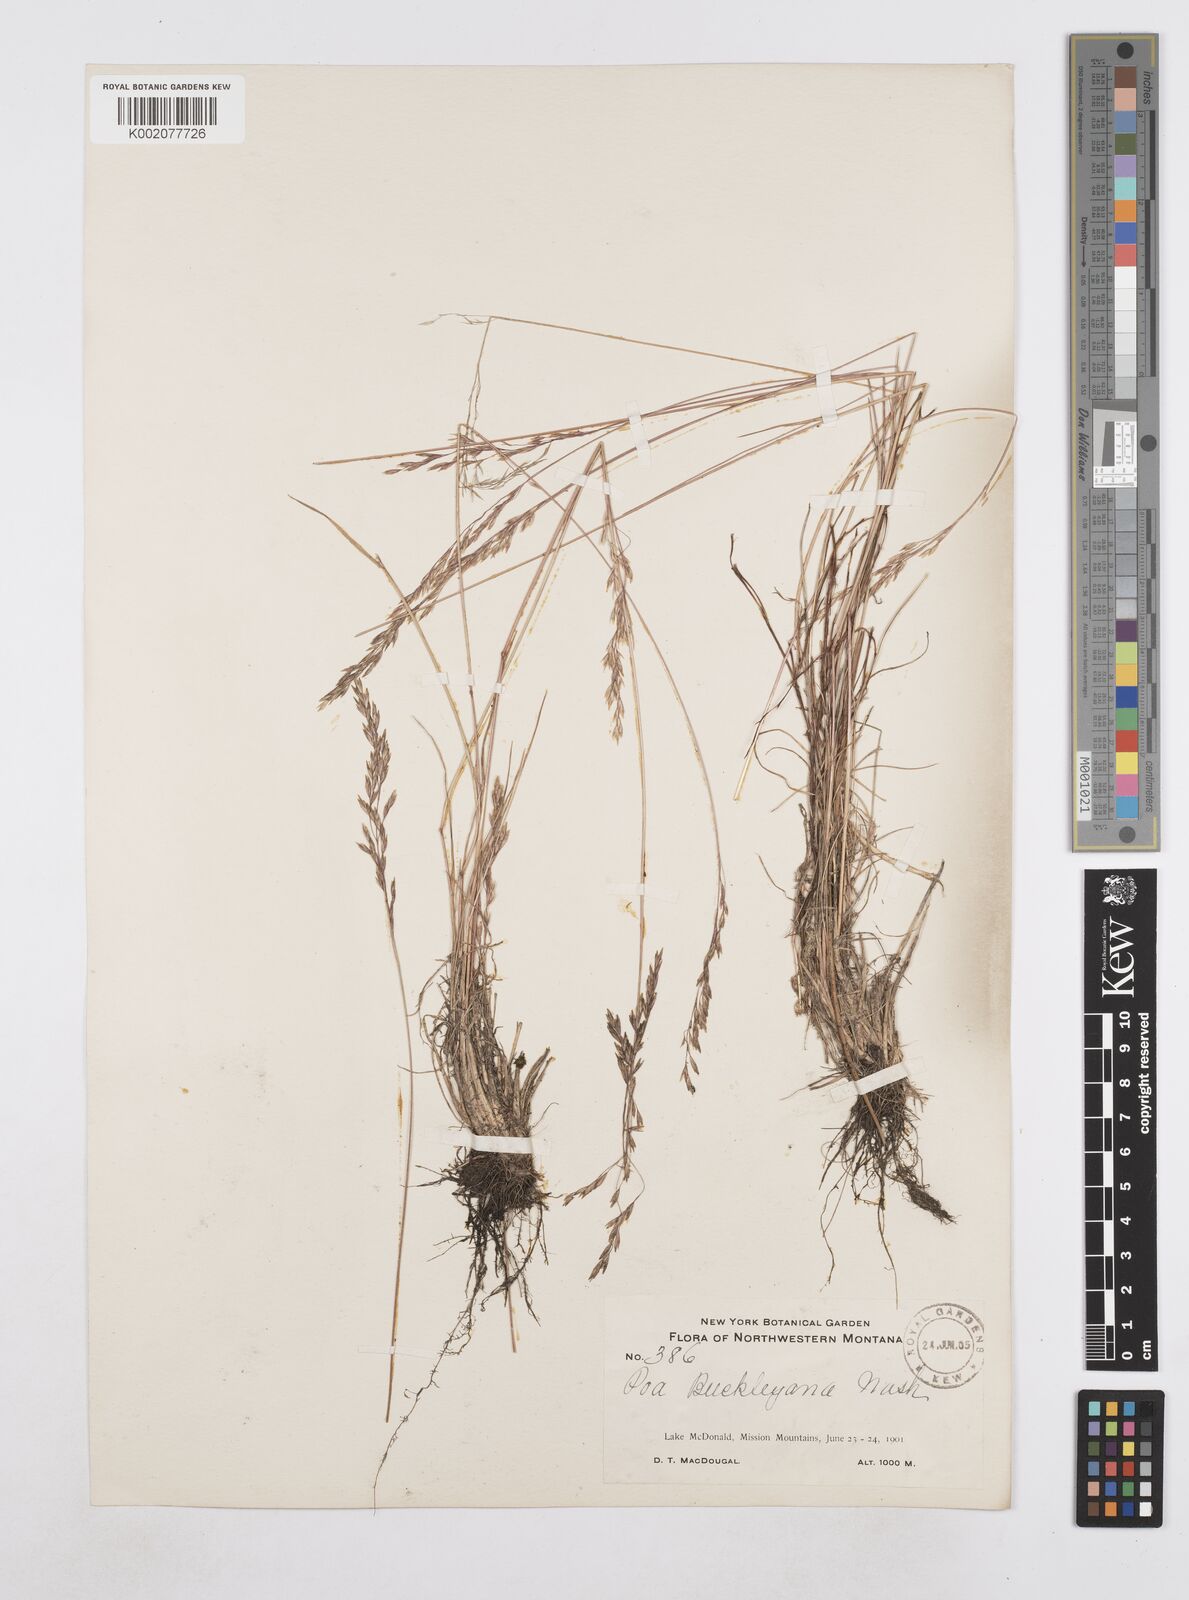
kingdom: Plantae
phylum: Tracheophyta
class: Liliopsida
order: Poales
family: Poaceae
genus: Poa
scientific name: Poa secunda
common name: Sandberg bluegrass
